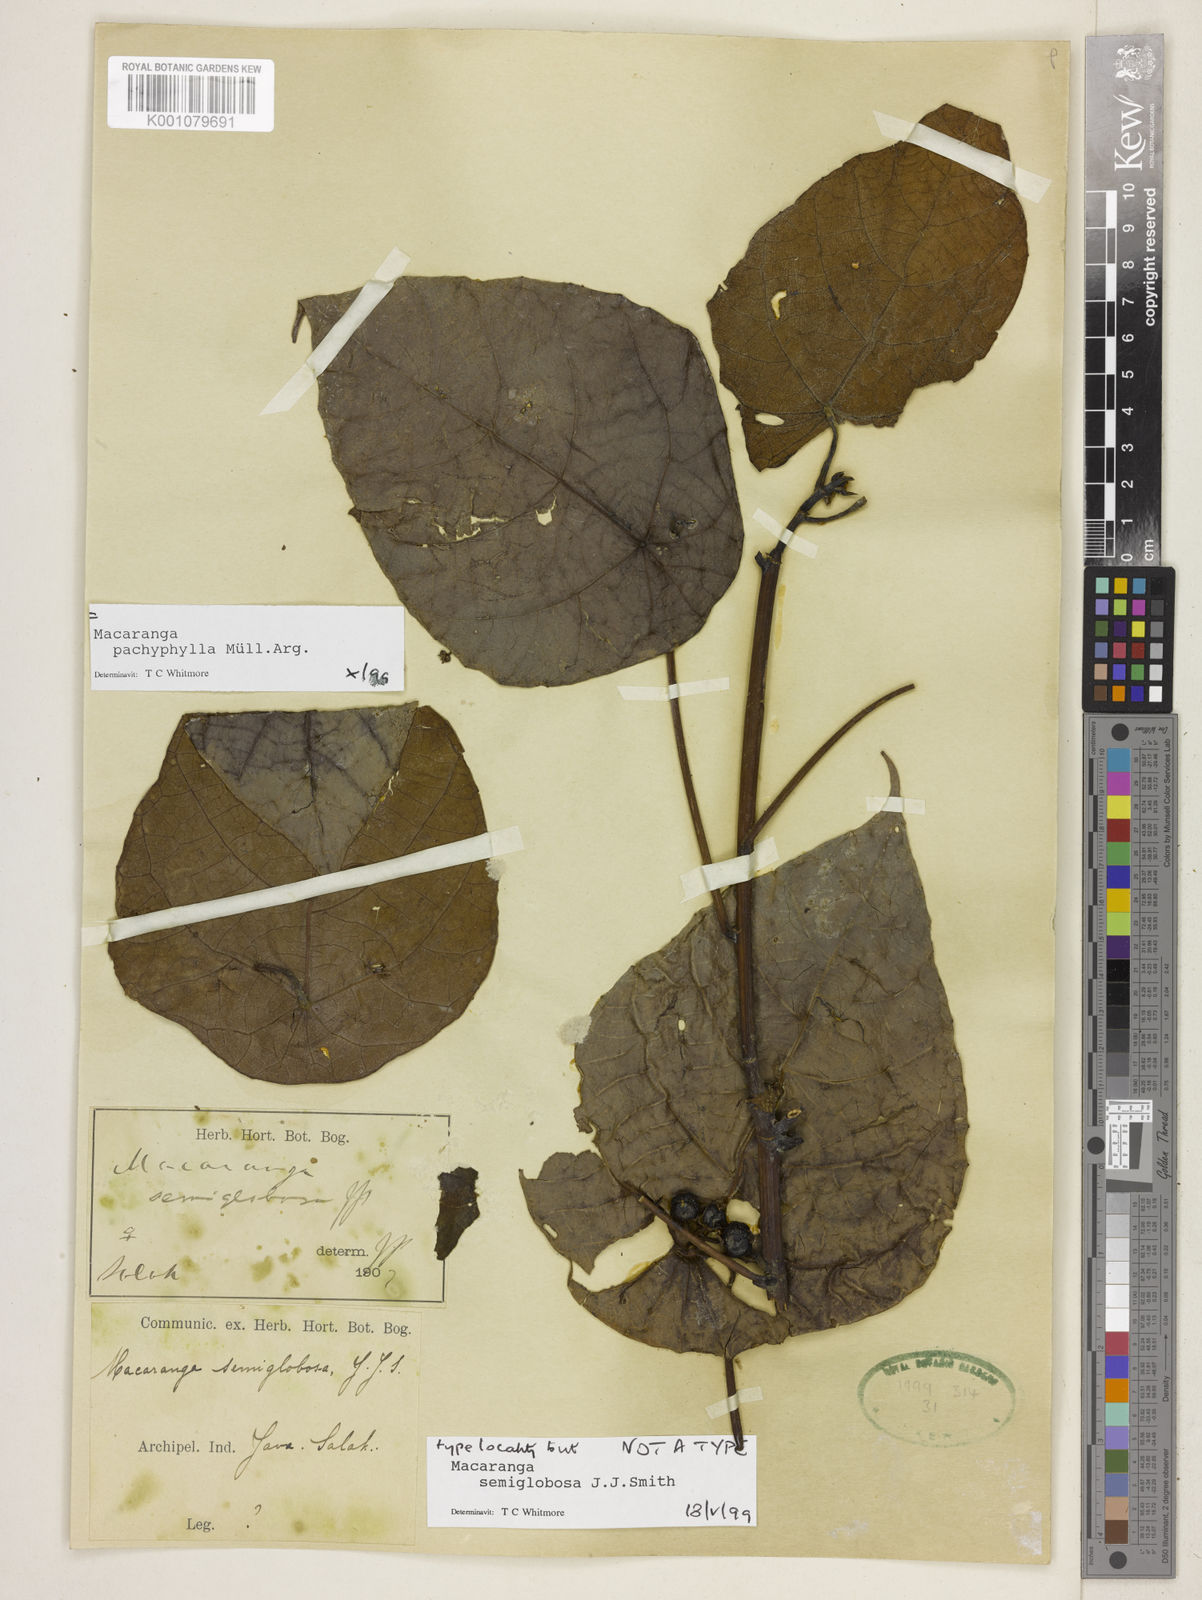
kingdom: Plantae
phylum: Tracheophyta
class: Magnoliopsida
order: Malpighiales
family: Euphorbiaceae
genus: Macaranga
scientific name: Macaranga
